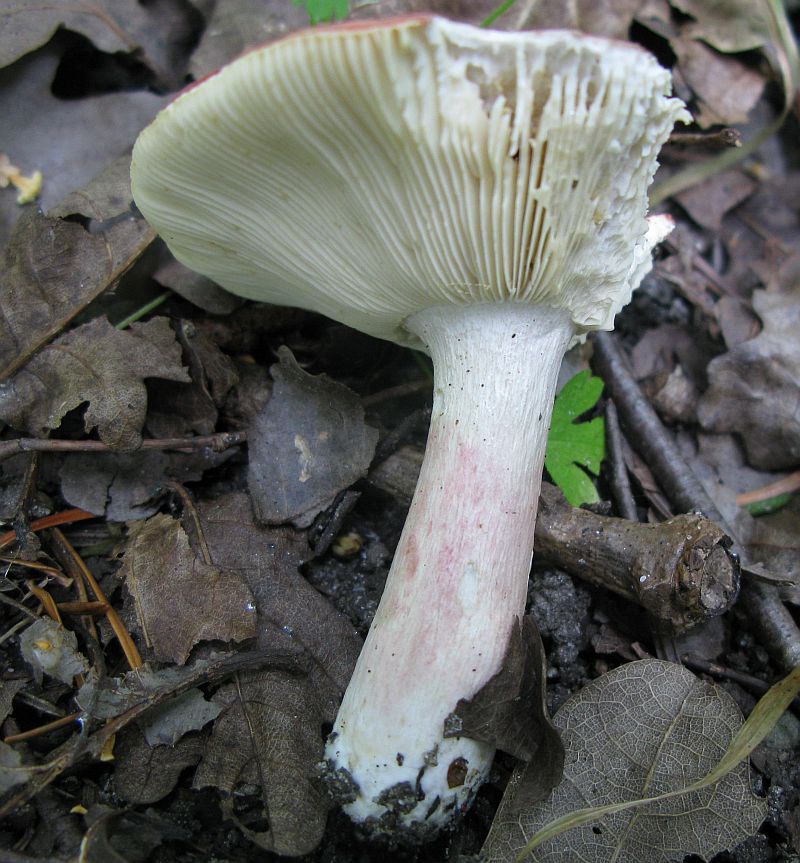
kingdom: Fungi
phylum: Basidiomycota
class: Agaricomycetes
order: Russulales
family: Russulaceae
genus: Russula
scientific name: Russula depallens
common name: falmende skørhat
